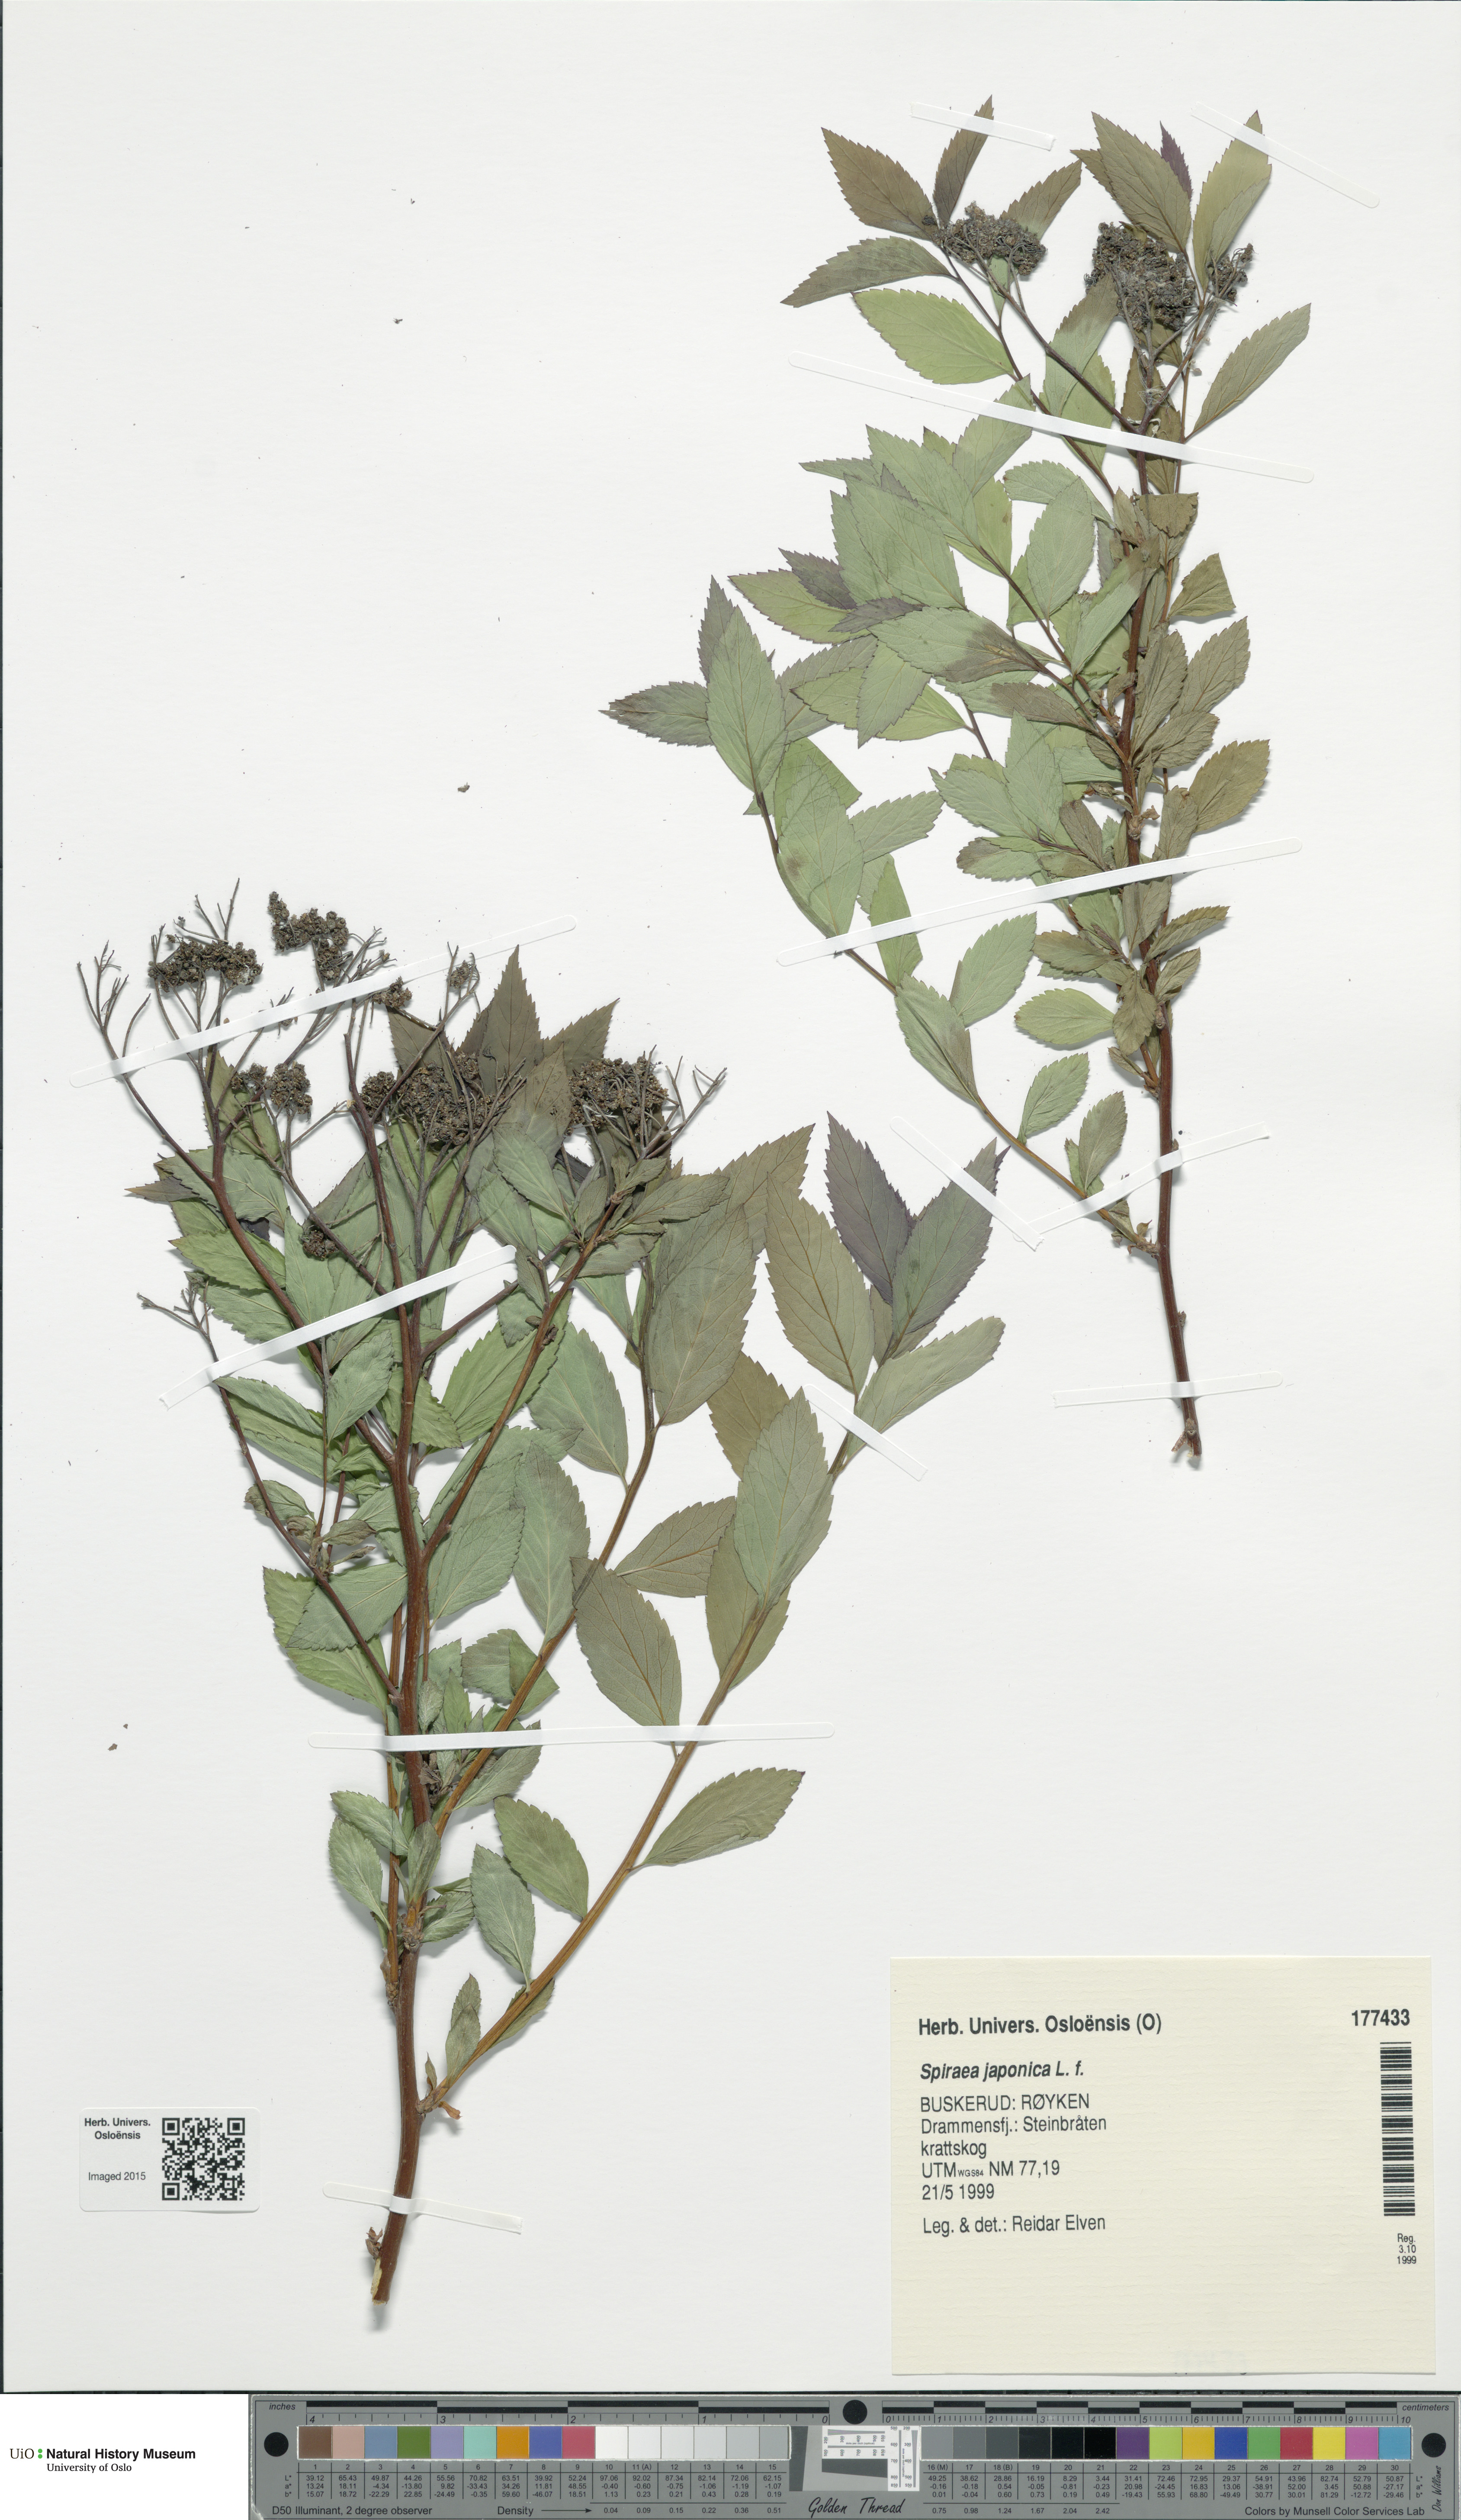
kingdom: Plantae
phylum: Tracheophyta
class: Magnoliopsida
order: Rosales
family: Rosaceae
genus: Spiraea
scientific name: Spiraea japonica
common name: Japanese spiraea
